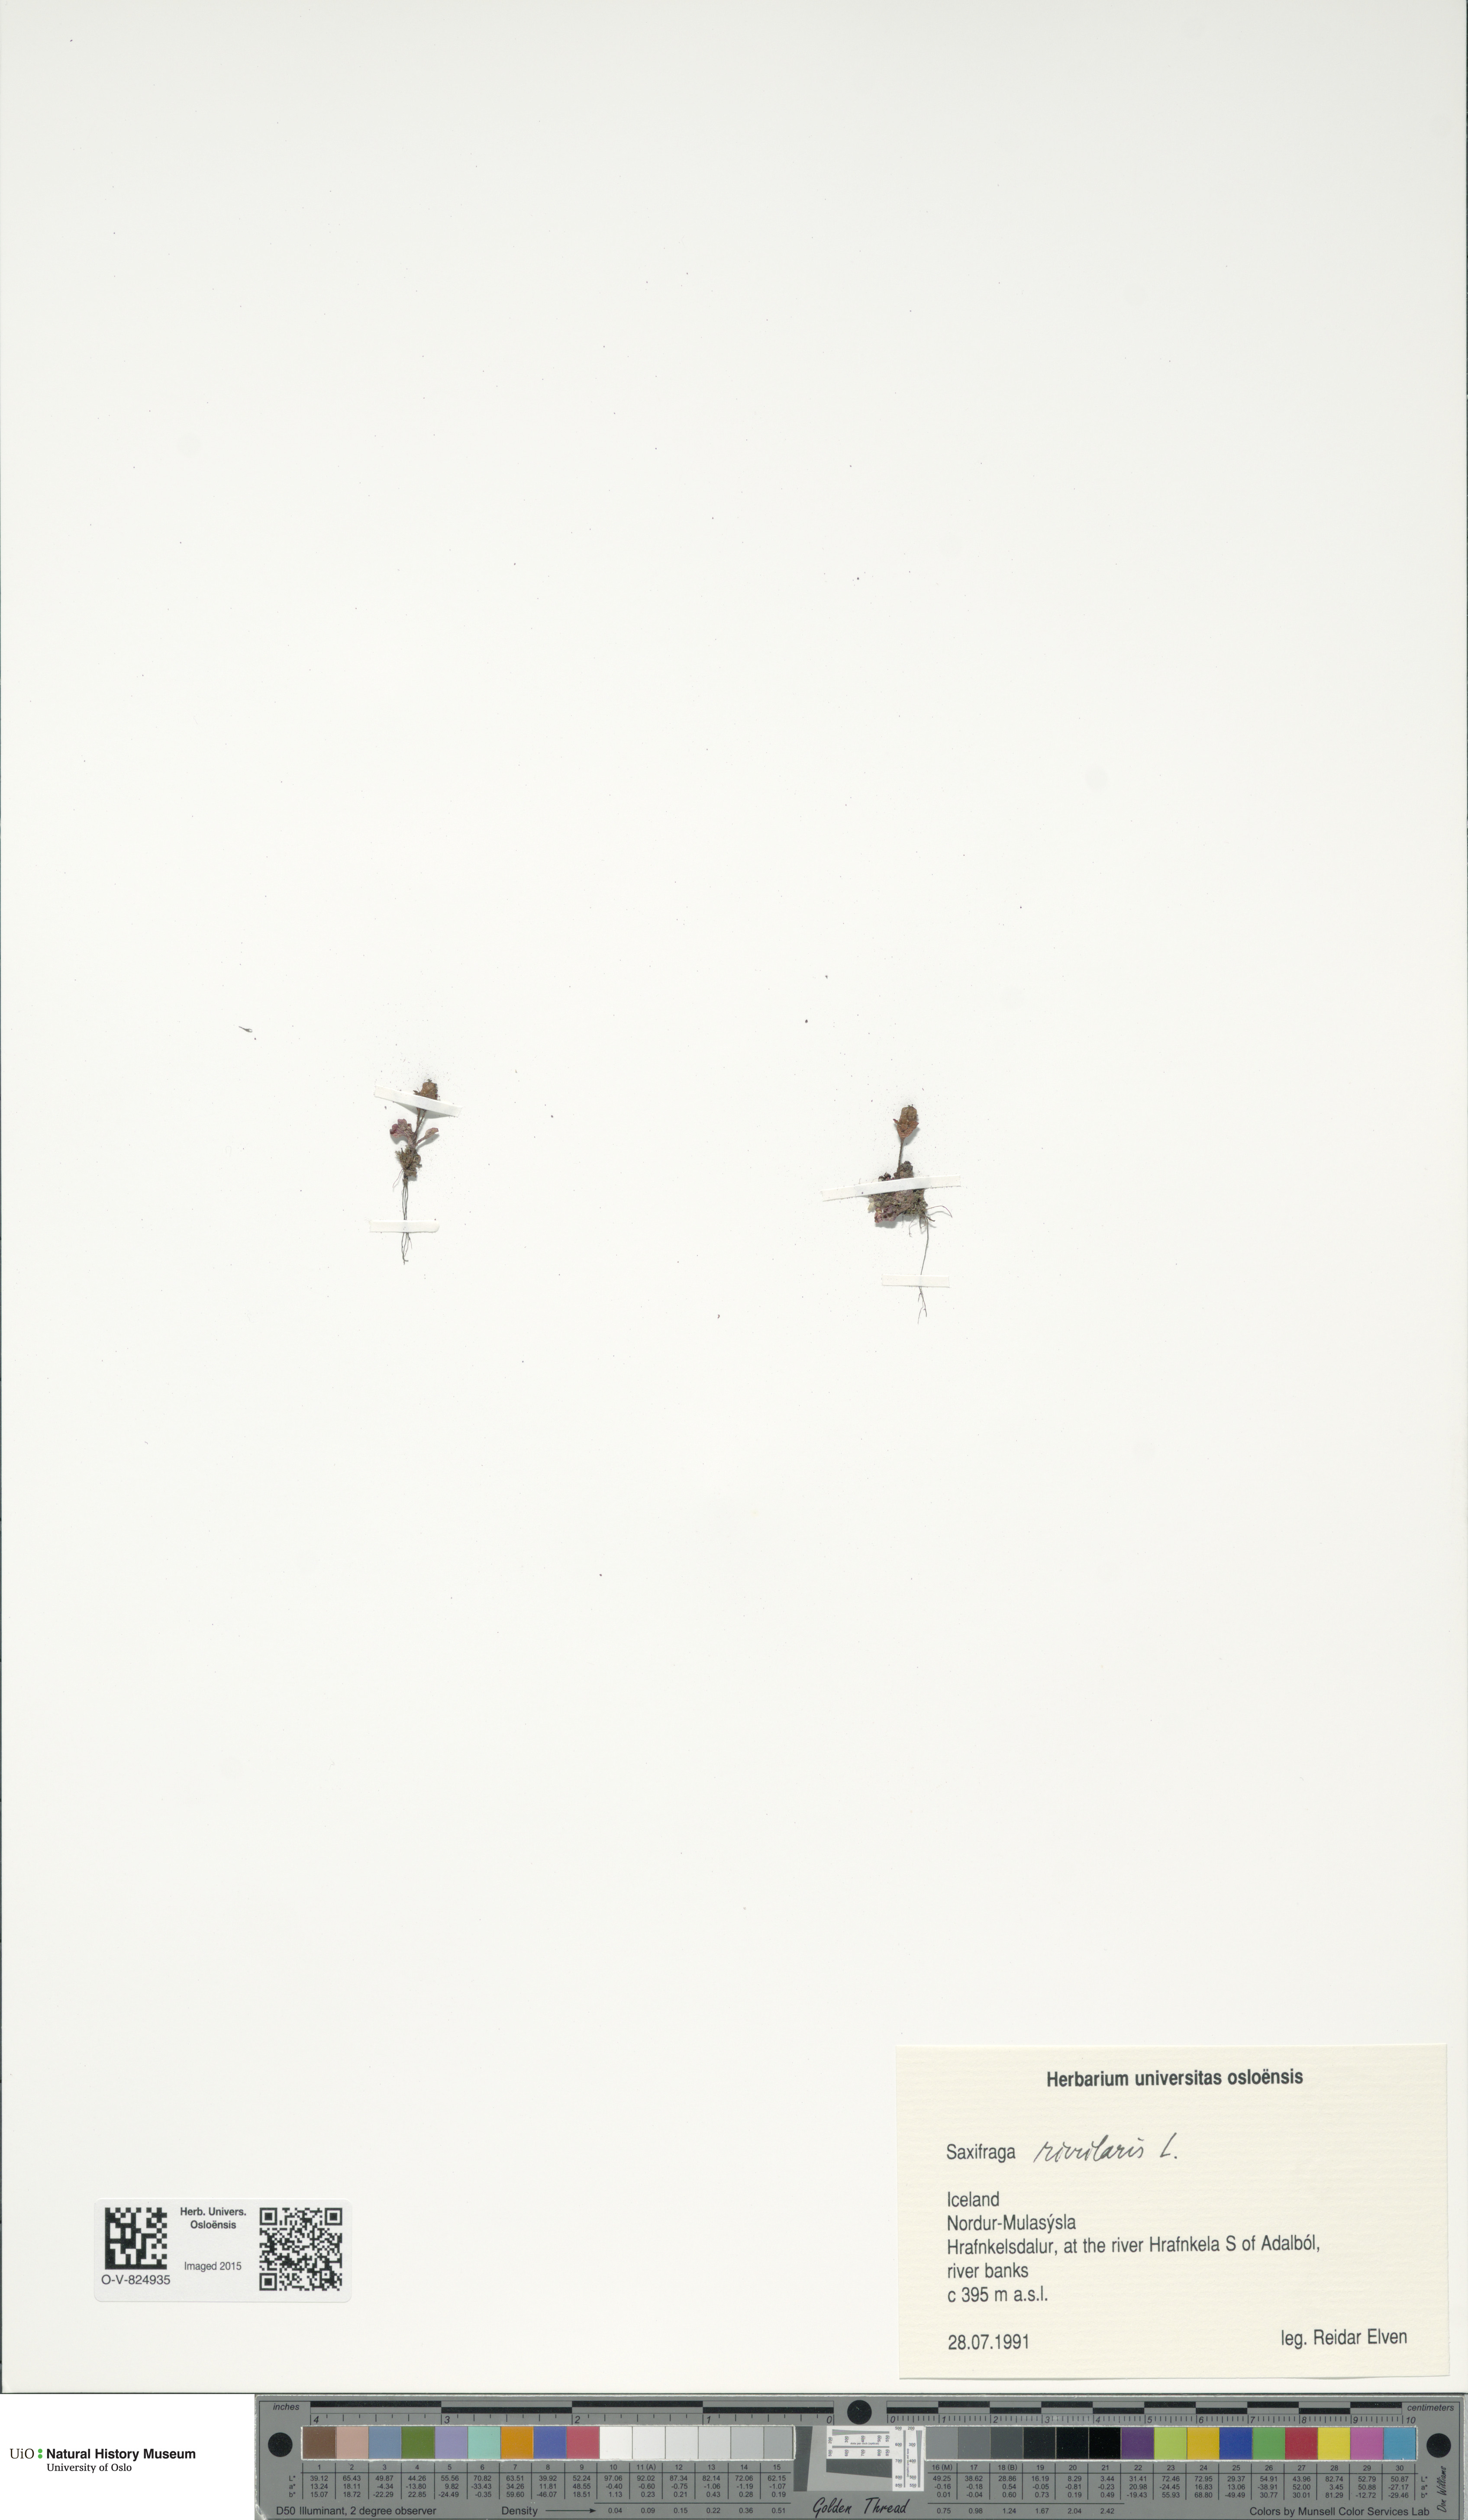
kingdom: Plantae
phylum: Tracheophyta
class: Magnoliopsida
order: Saxifragales
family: Saxifragaceae
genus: Saxifraga
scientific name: Saxifraga rivularis
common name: Highland saxifrage
